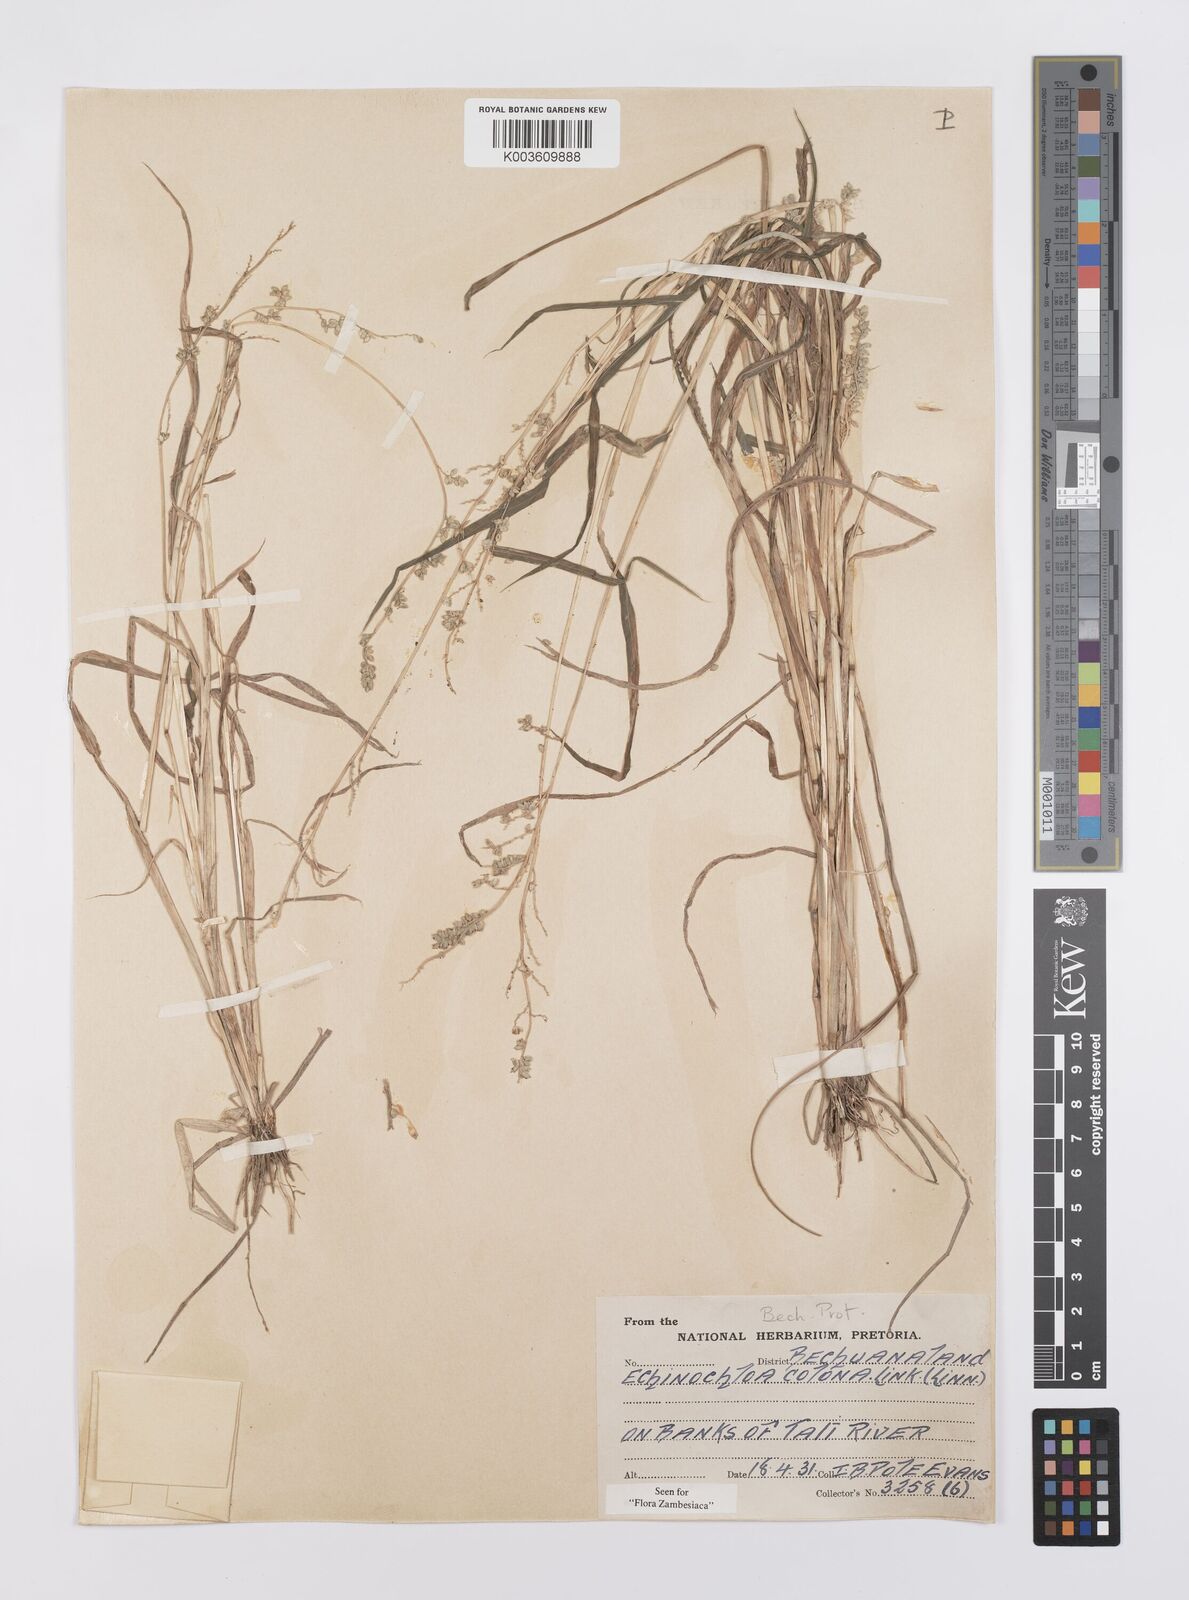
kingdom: Plantae
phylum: Tracheophyta
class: Liliopsida
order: Poales
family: Poaceae
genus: Echinochloa
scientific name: Echinochloa colonum
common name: Jungle rice
